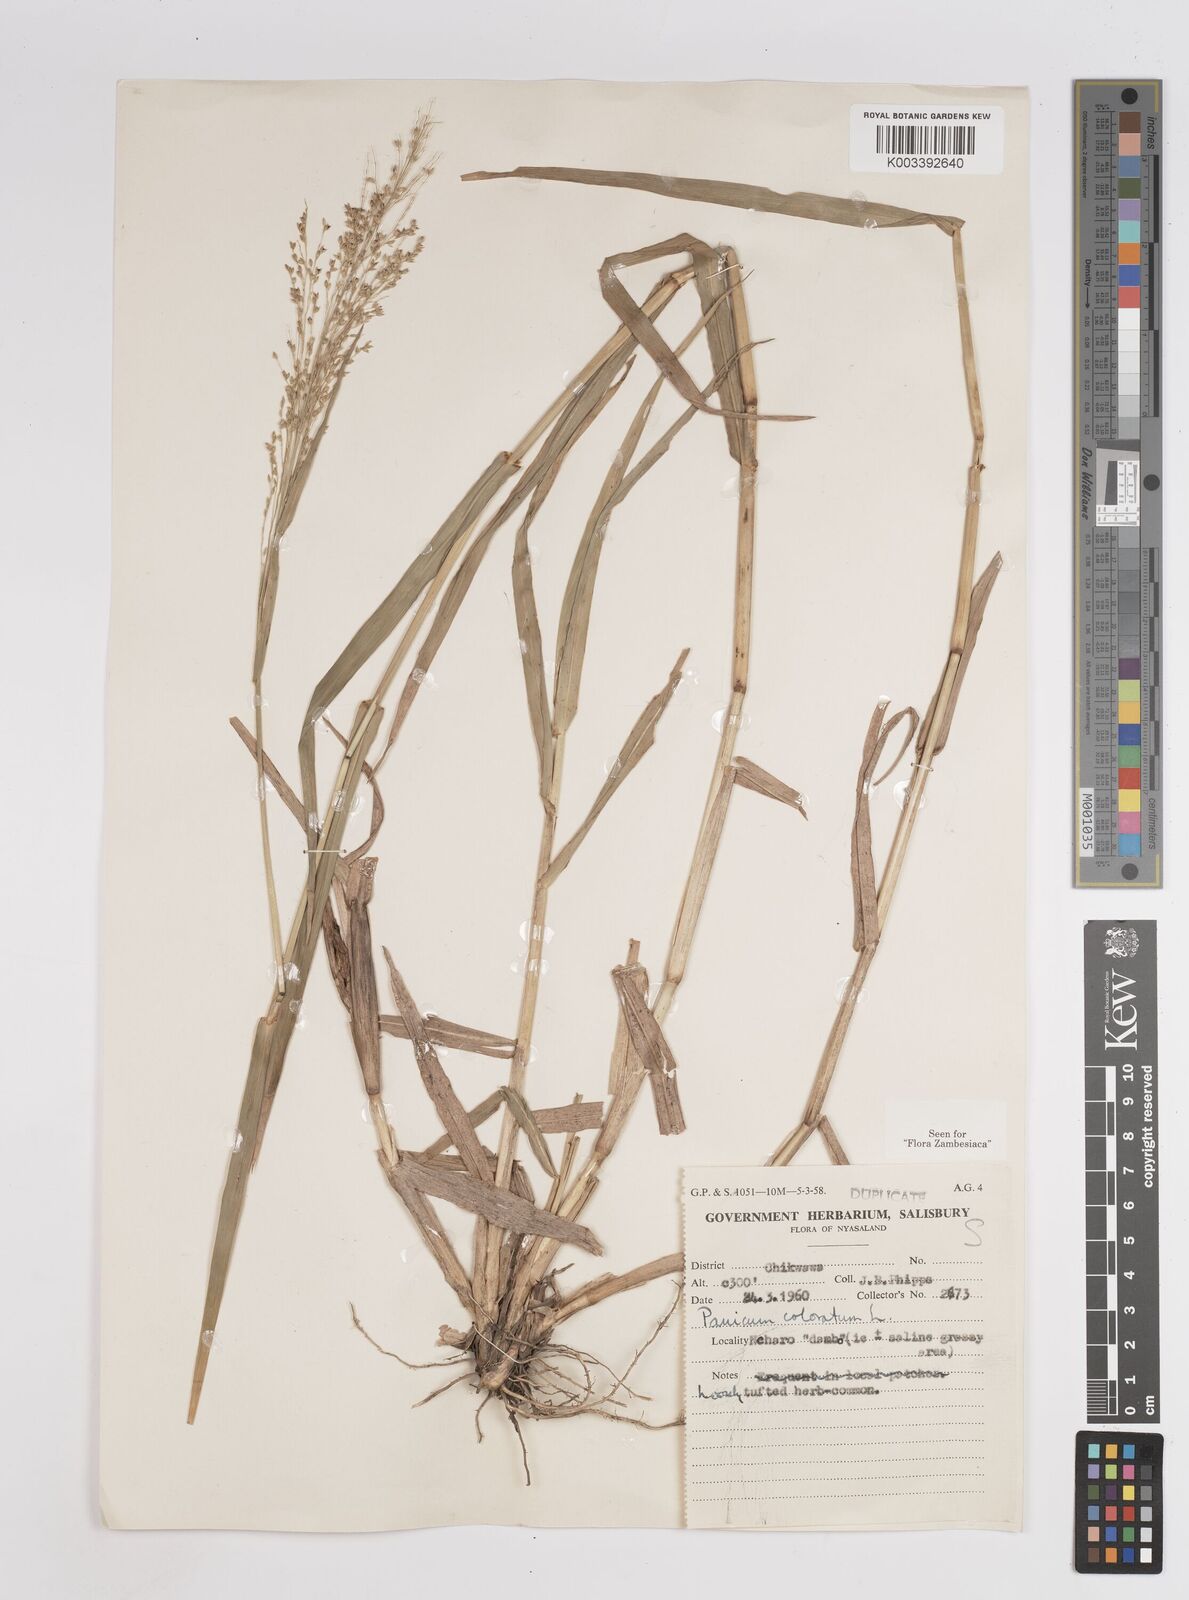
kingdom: Plantae
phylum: Tracheophyta
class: Liliopsida
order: Poales
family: Poaceae
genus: Panicum
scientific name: Panicum
